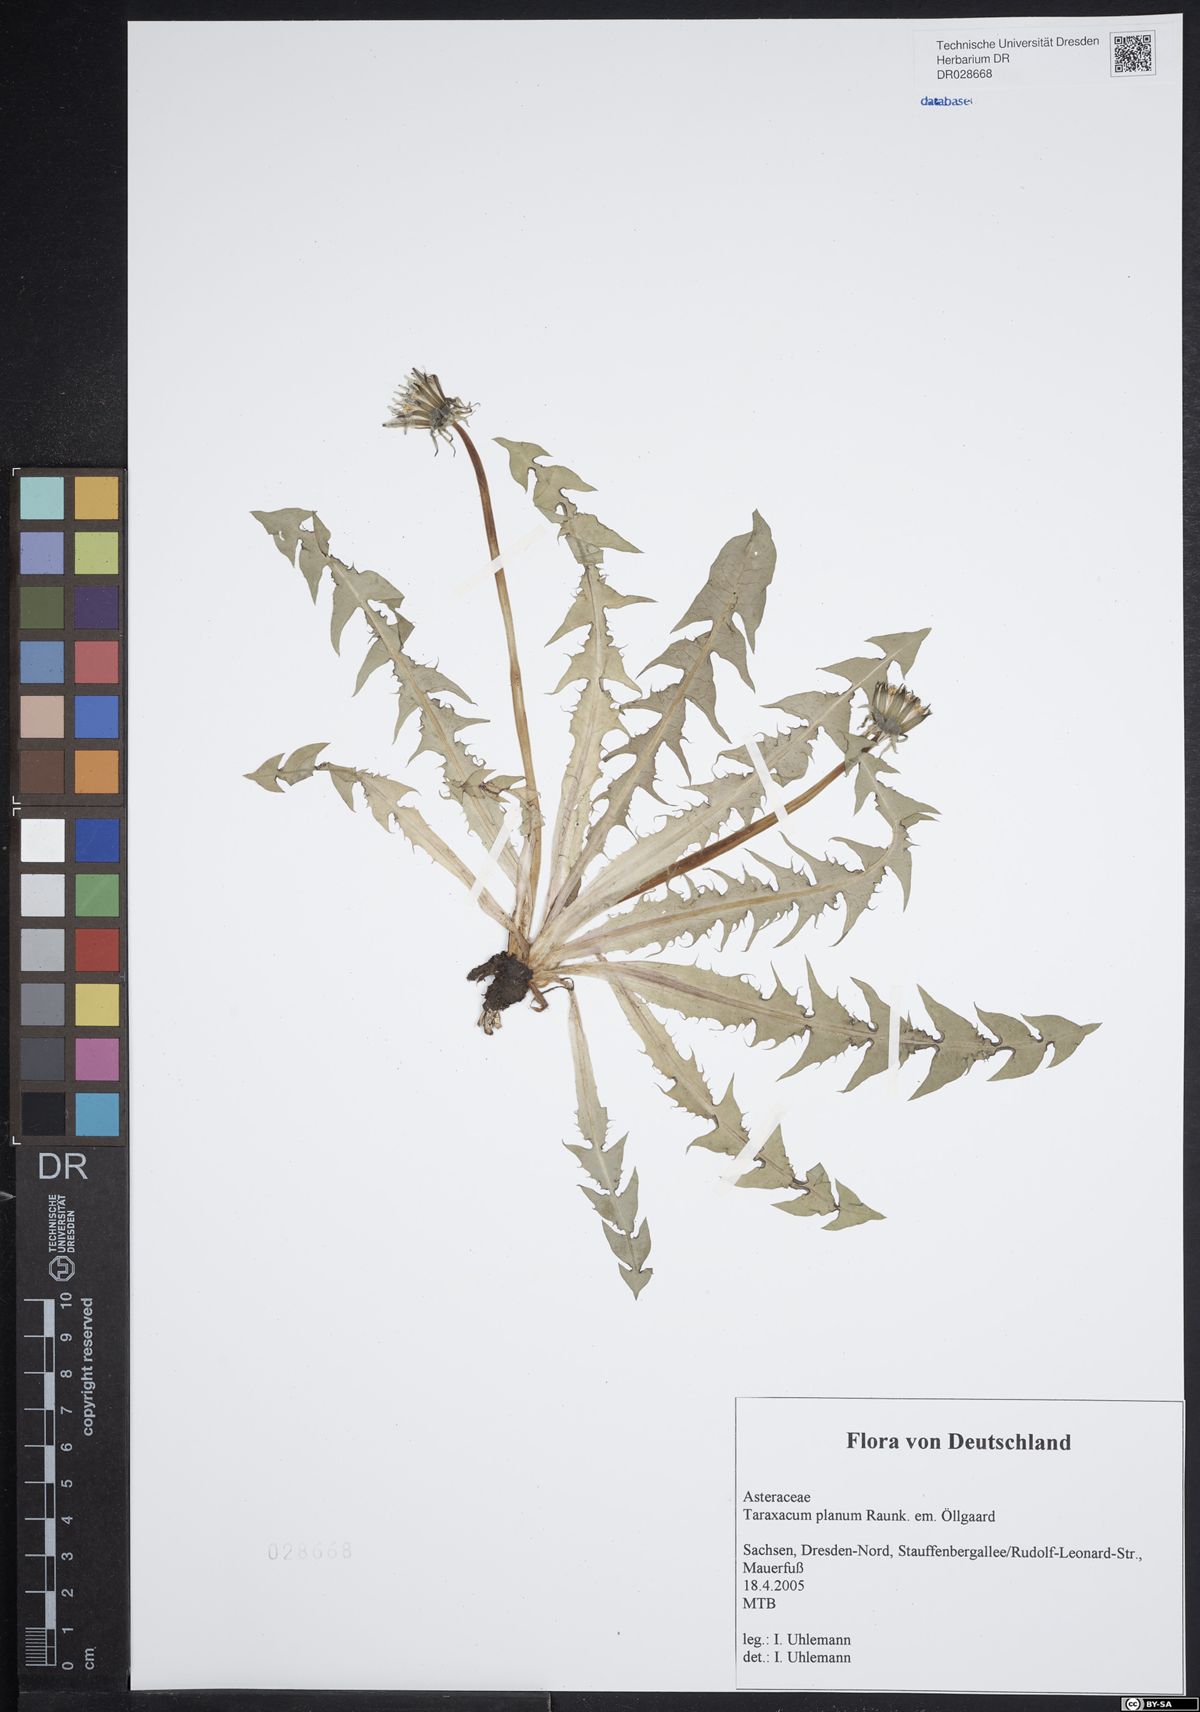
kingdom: Plantae
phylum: Tracheophyta
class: Magnoliopsida
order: Asterales
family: Asteraceae
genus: Taraxacum
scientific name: Taraxacum planum
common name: Diverse-leaved dandelion
